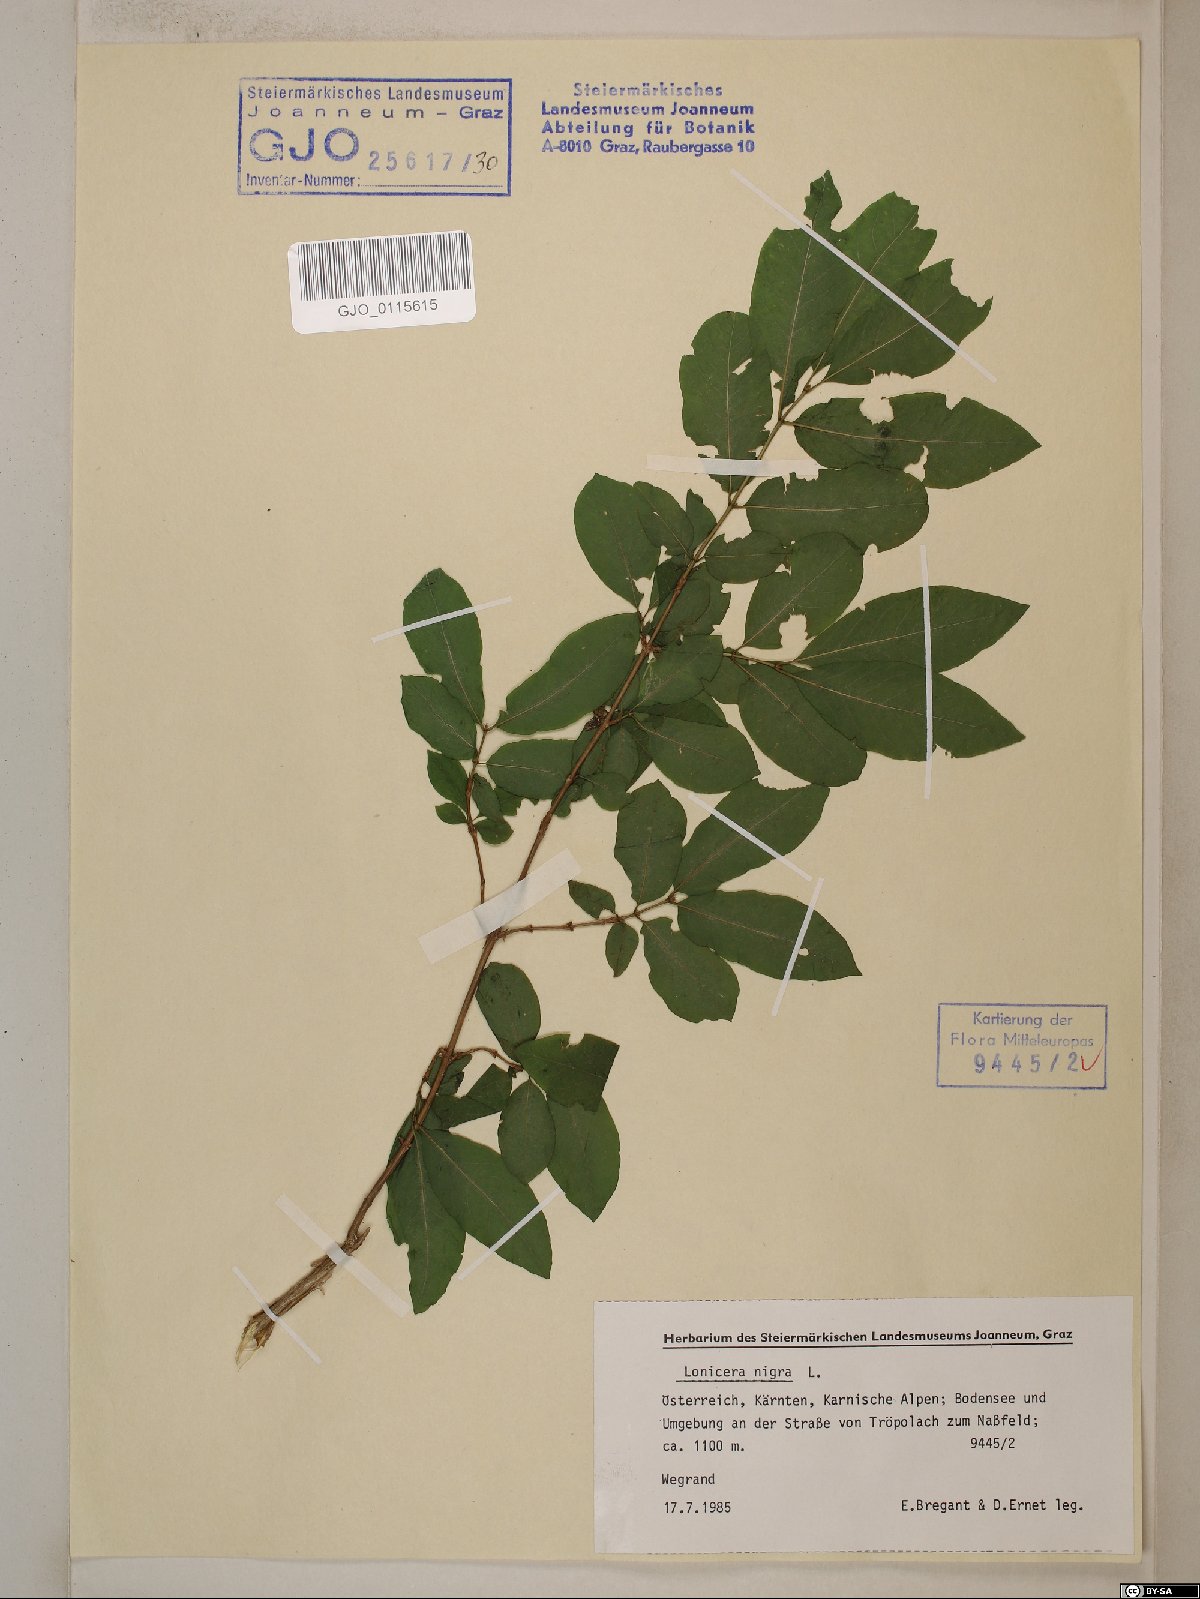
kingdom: Plantae
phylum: Tracheophyta
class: Magnoliopsida
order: Dipsacales
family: Caprifoliaceae
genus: Lonicera
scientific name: Lonicera nigra
